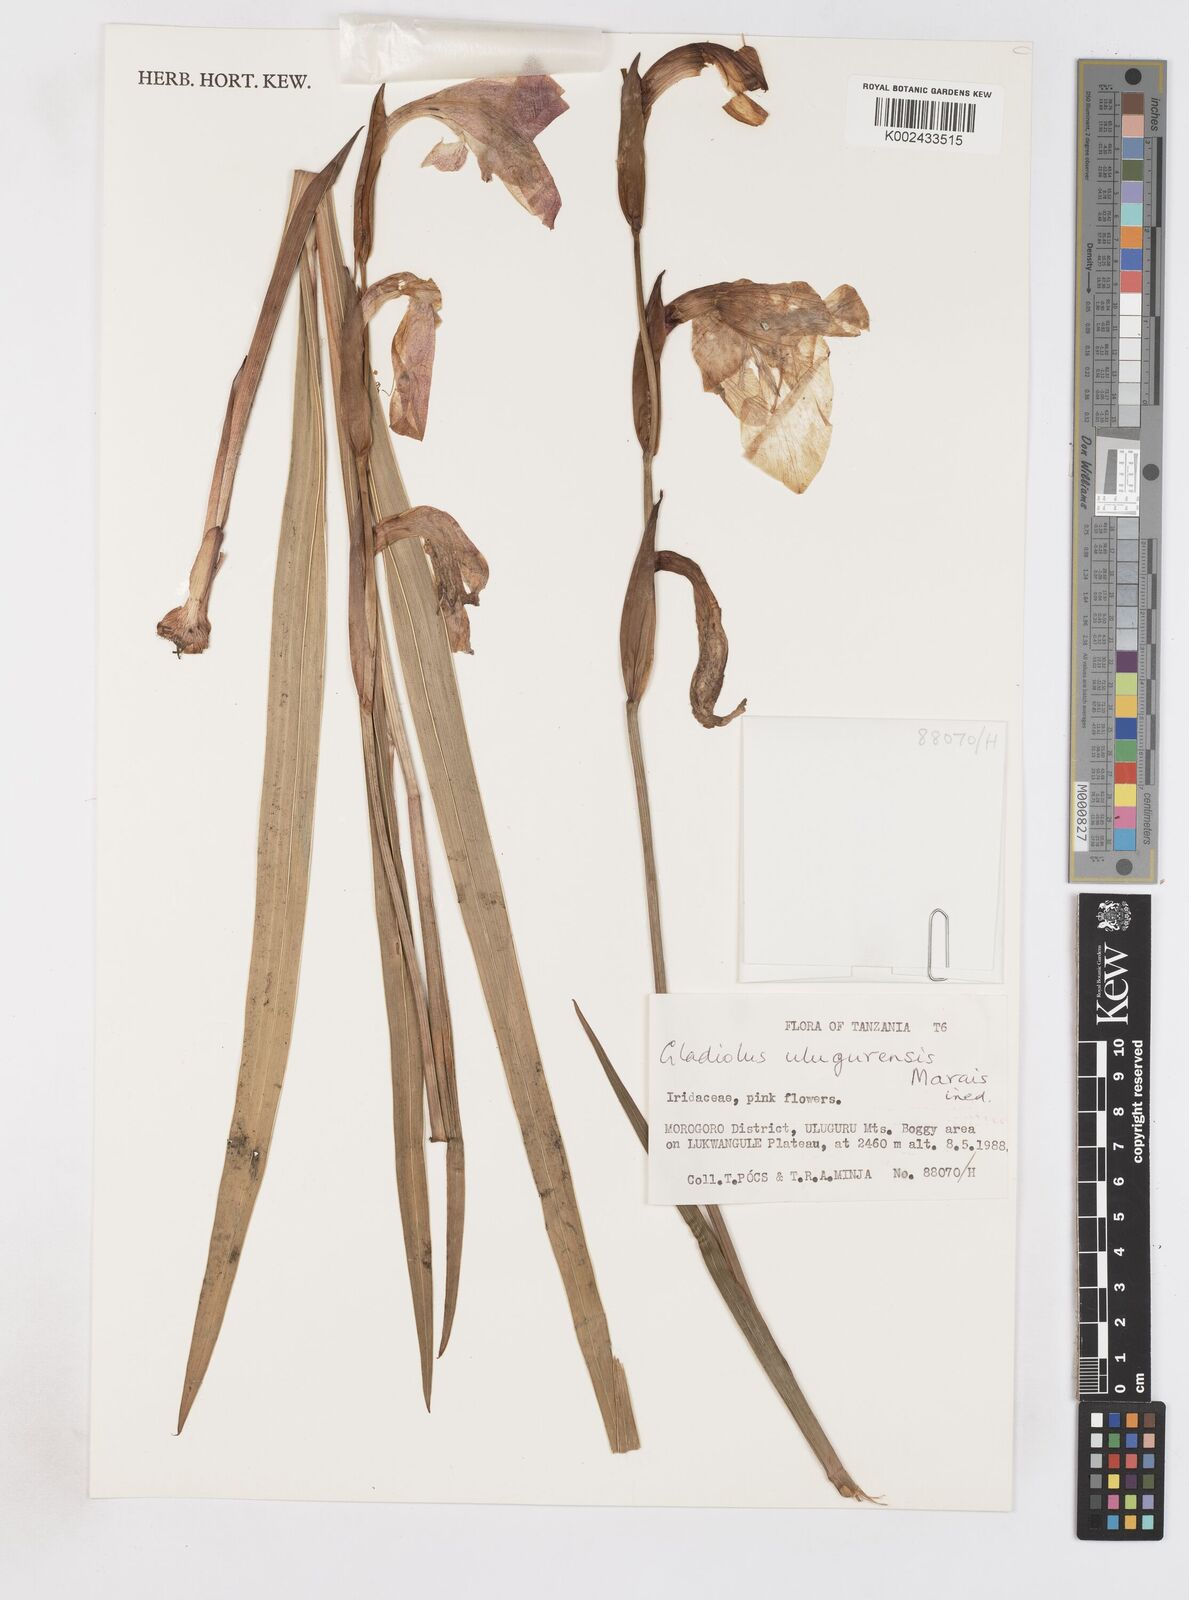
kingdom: Plantae
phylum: Tracheophyta
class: Liliopsida
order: Asparagales
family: Iridaceae
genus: Gladiolus
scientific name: Gladiolus dalenii
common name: Cornflag
